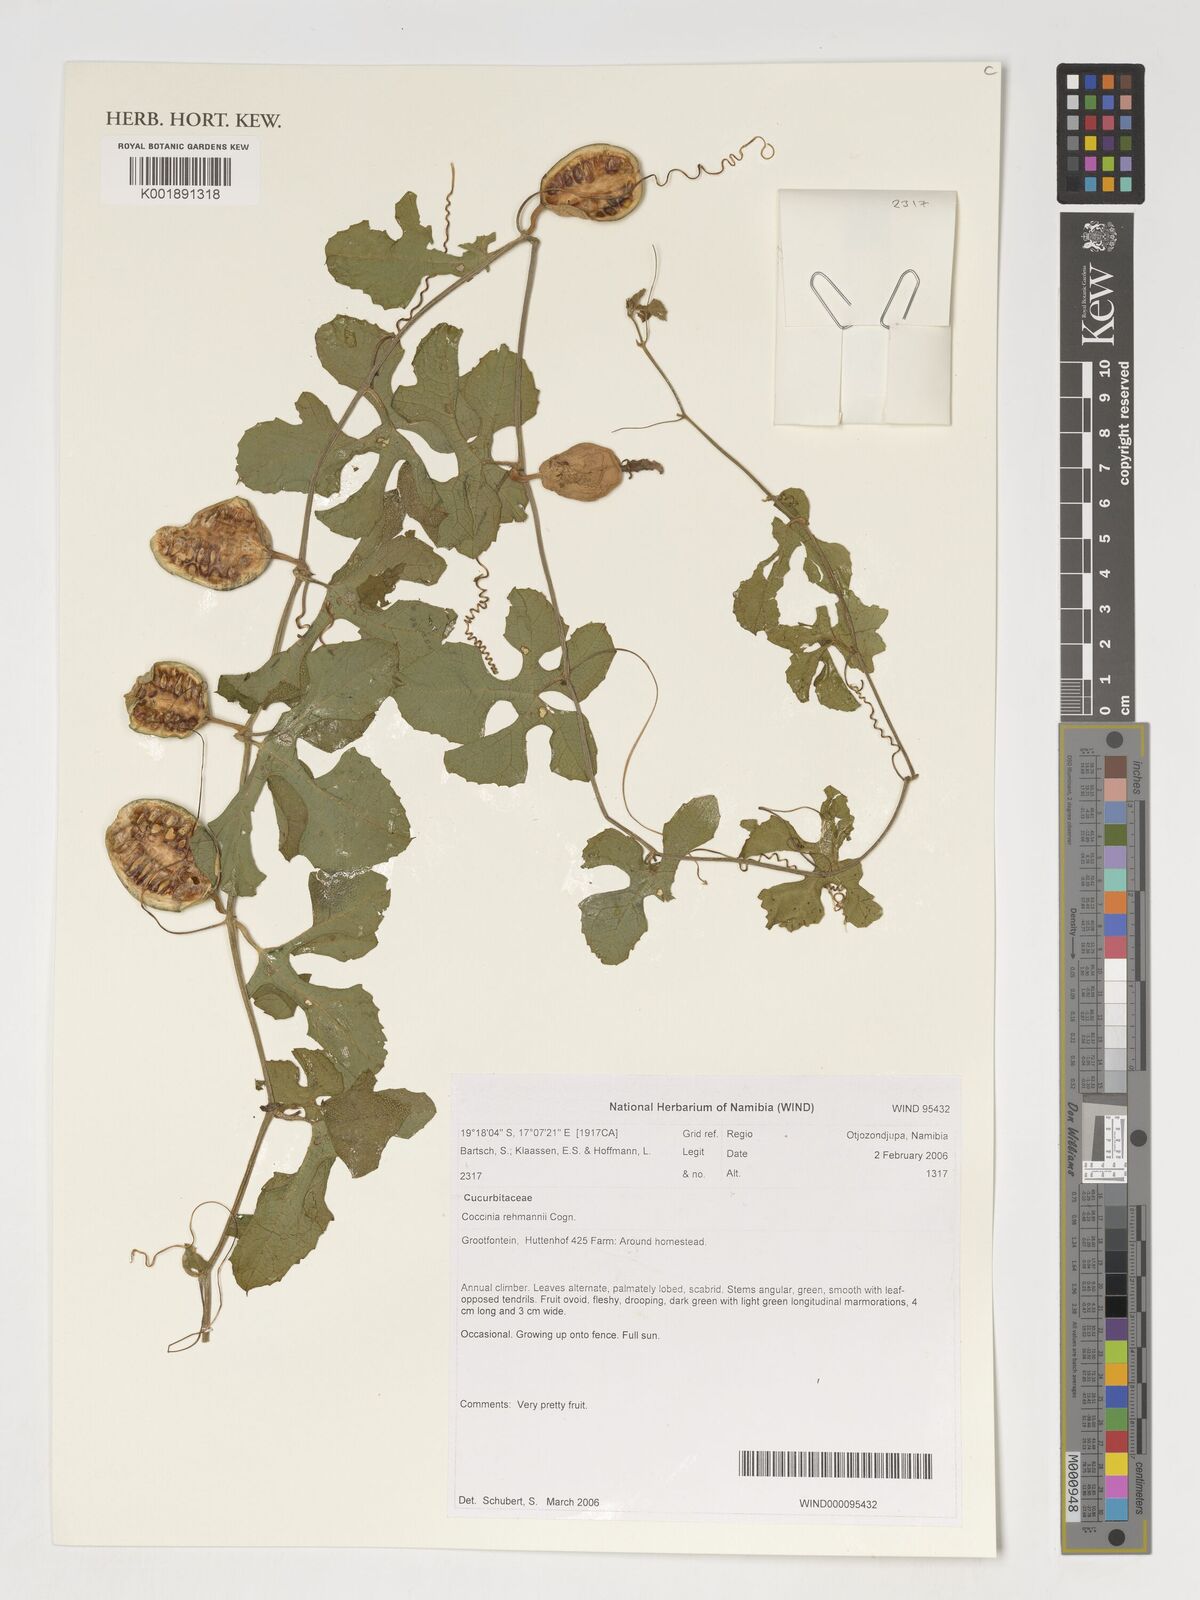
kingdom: Plantae
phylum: Tracheophyta
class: Magnoliopsida
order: Cucurbitales
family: Cucurbitaceae
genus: Coccinia
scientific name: Coccinia rehmannii
